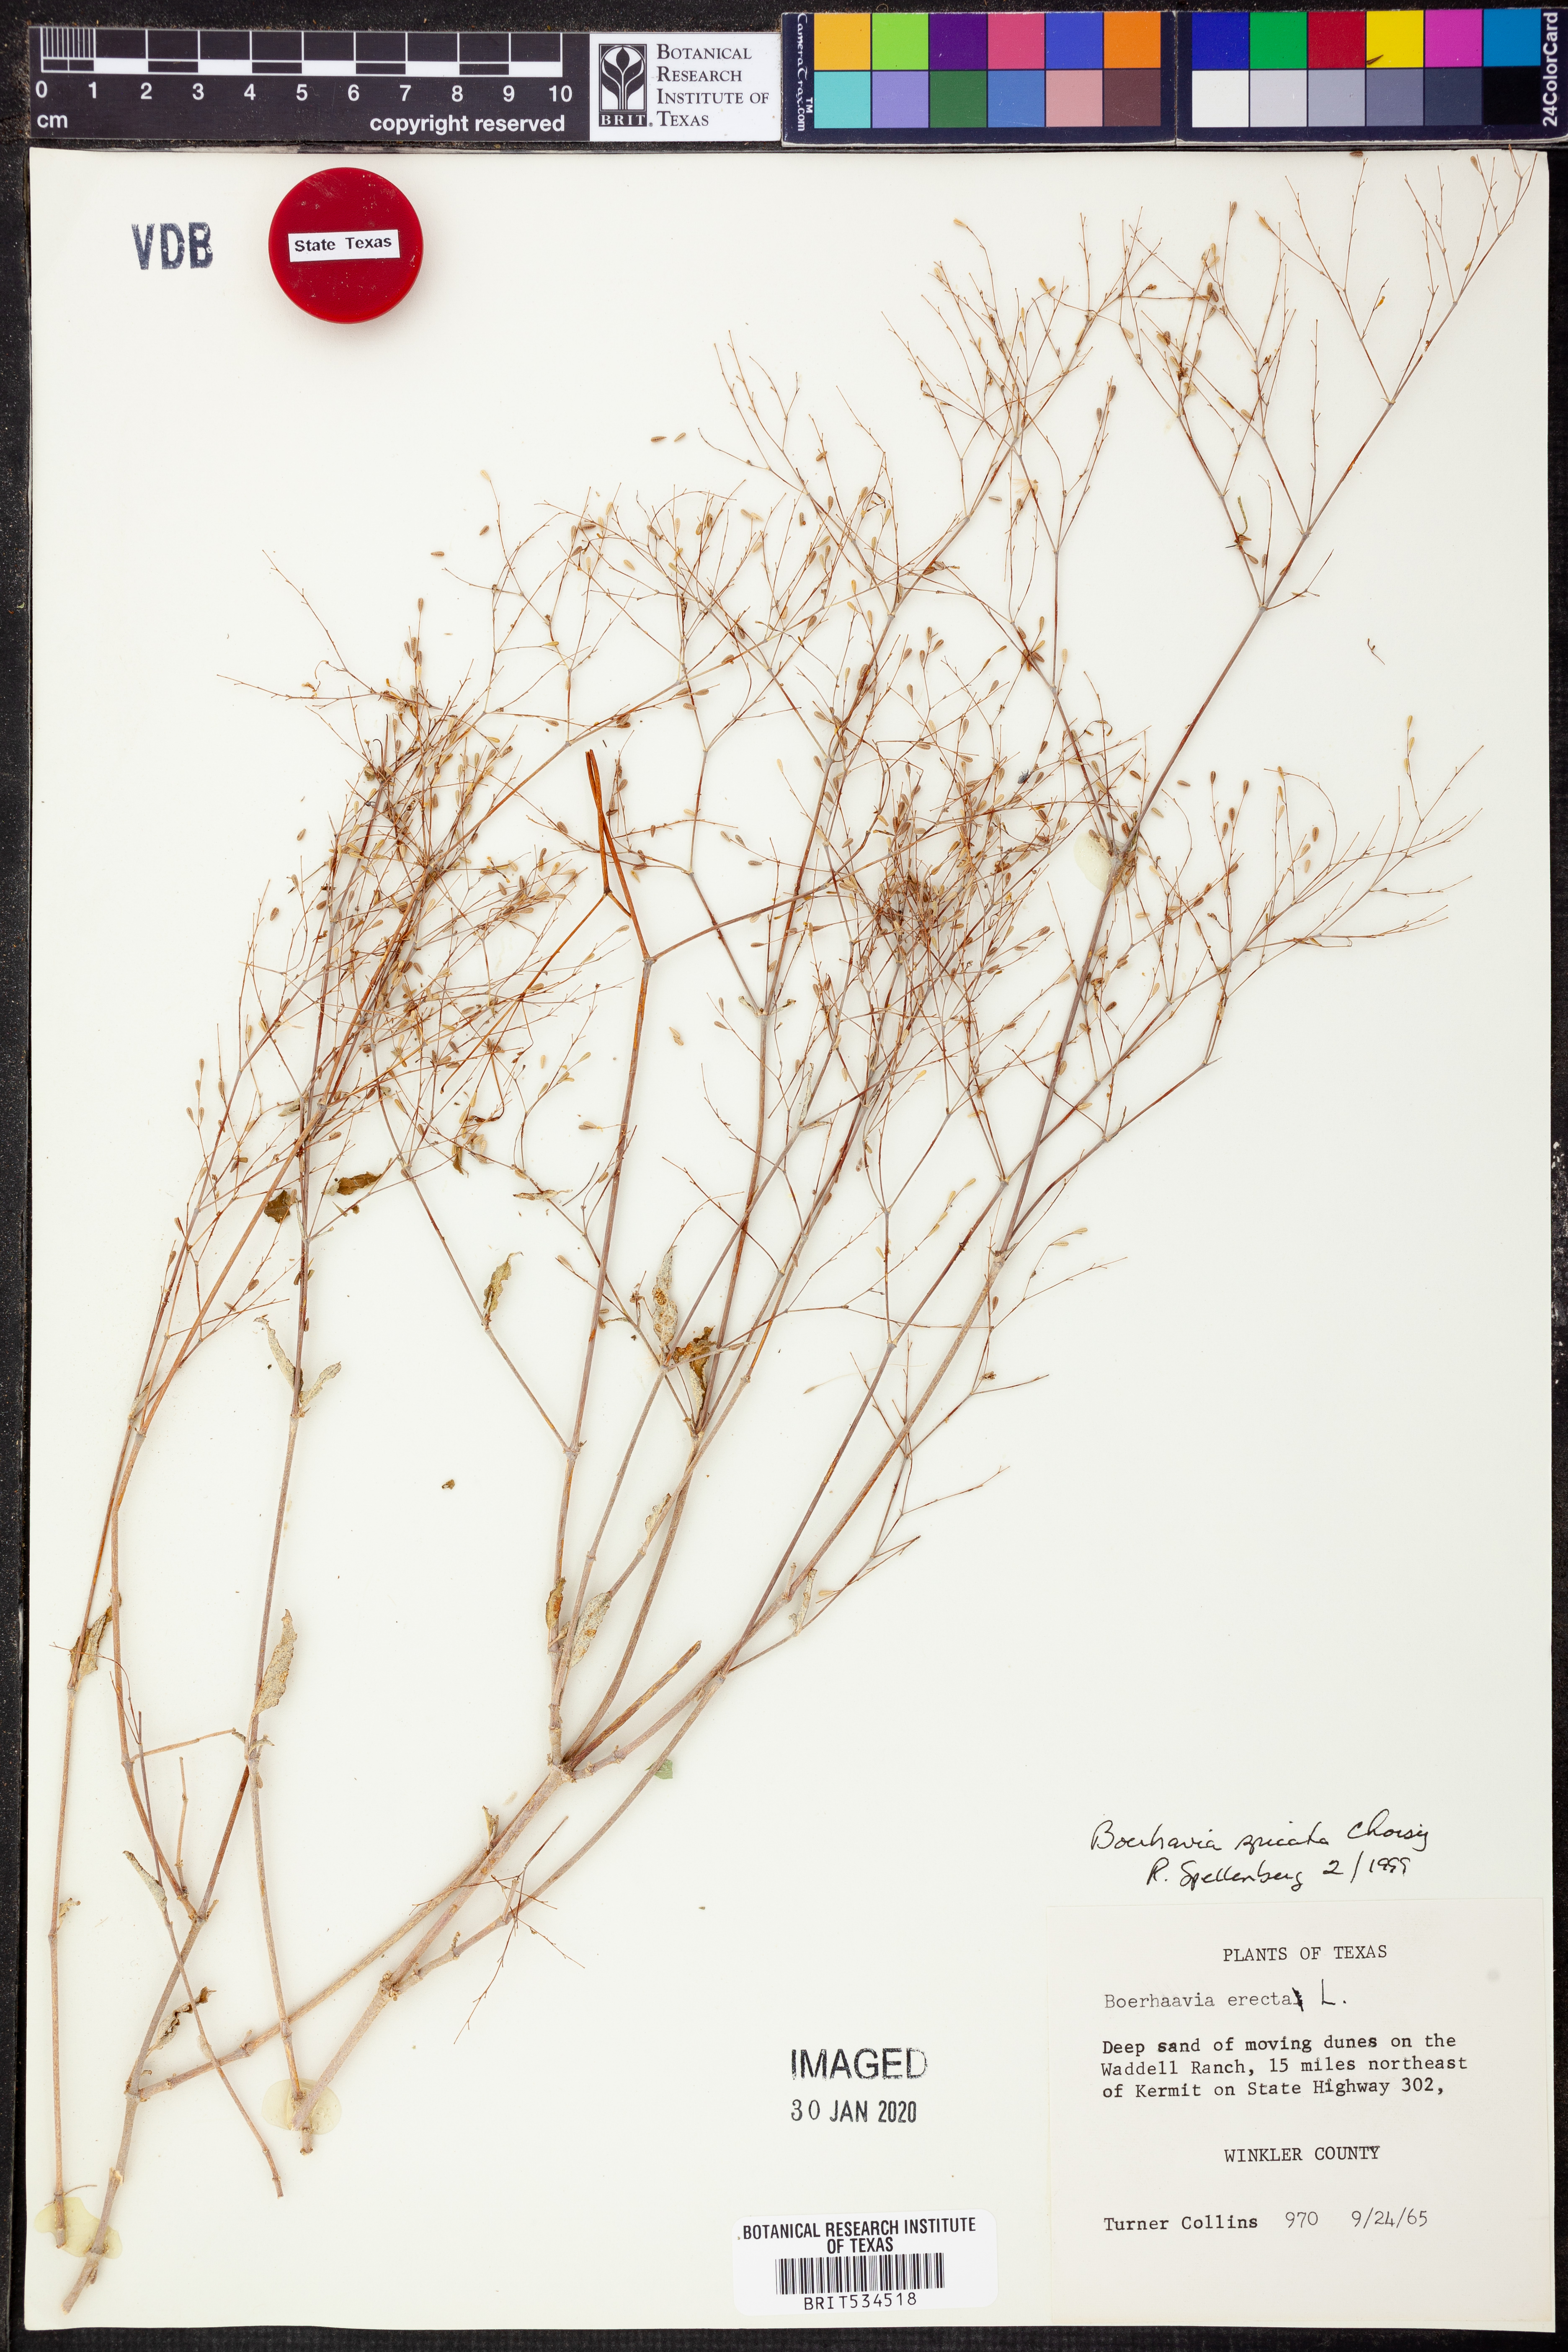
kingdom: Plantae
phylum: Tracheophyta
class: Magnoliopsida
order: Caryophyllales
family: Nyctaginaceae
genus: Boerhavia
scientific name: Boerhavia spicata
